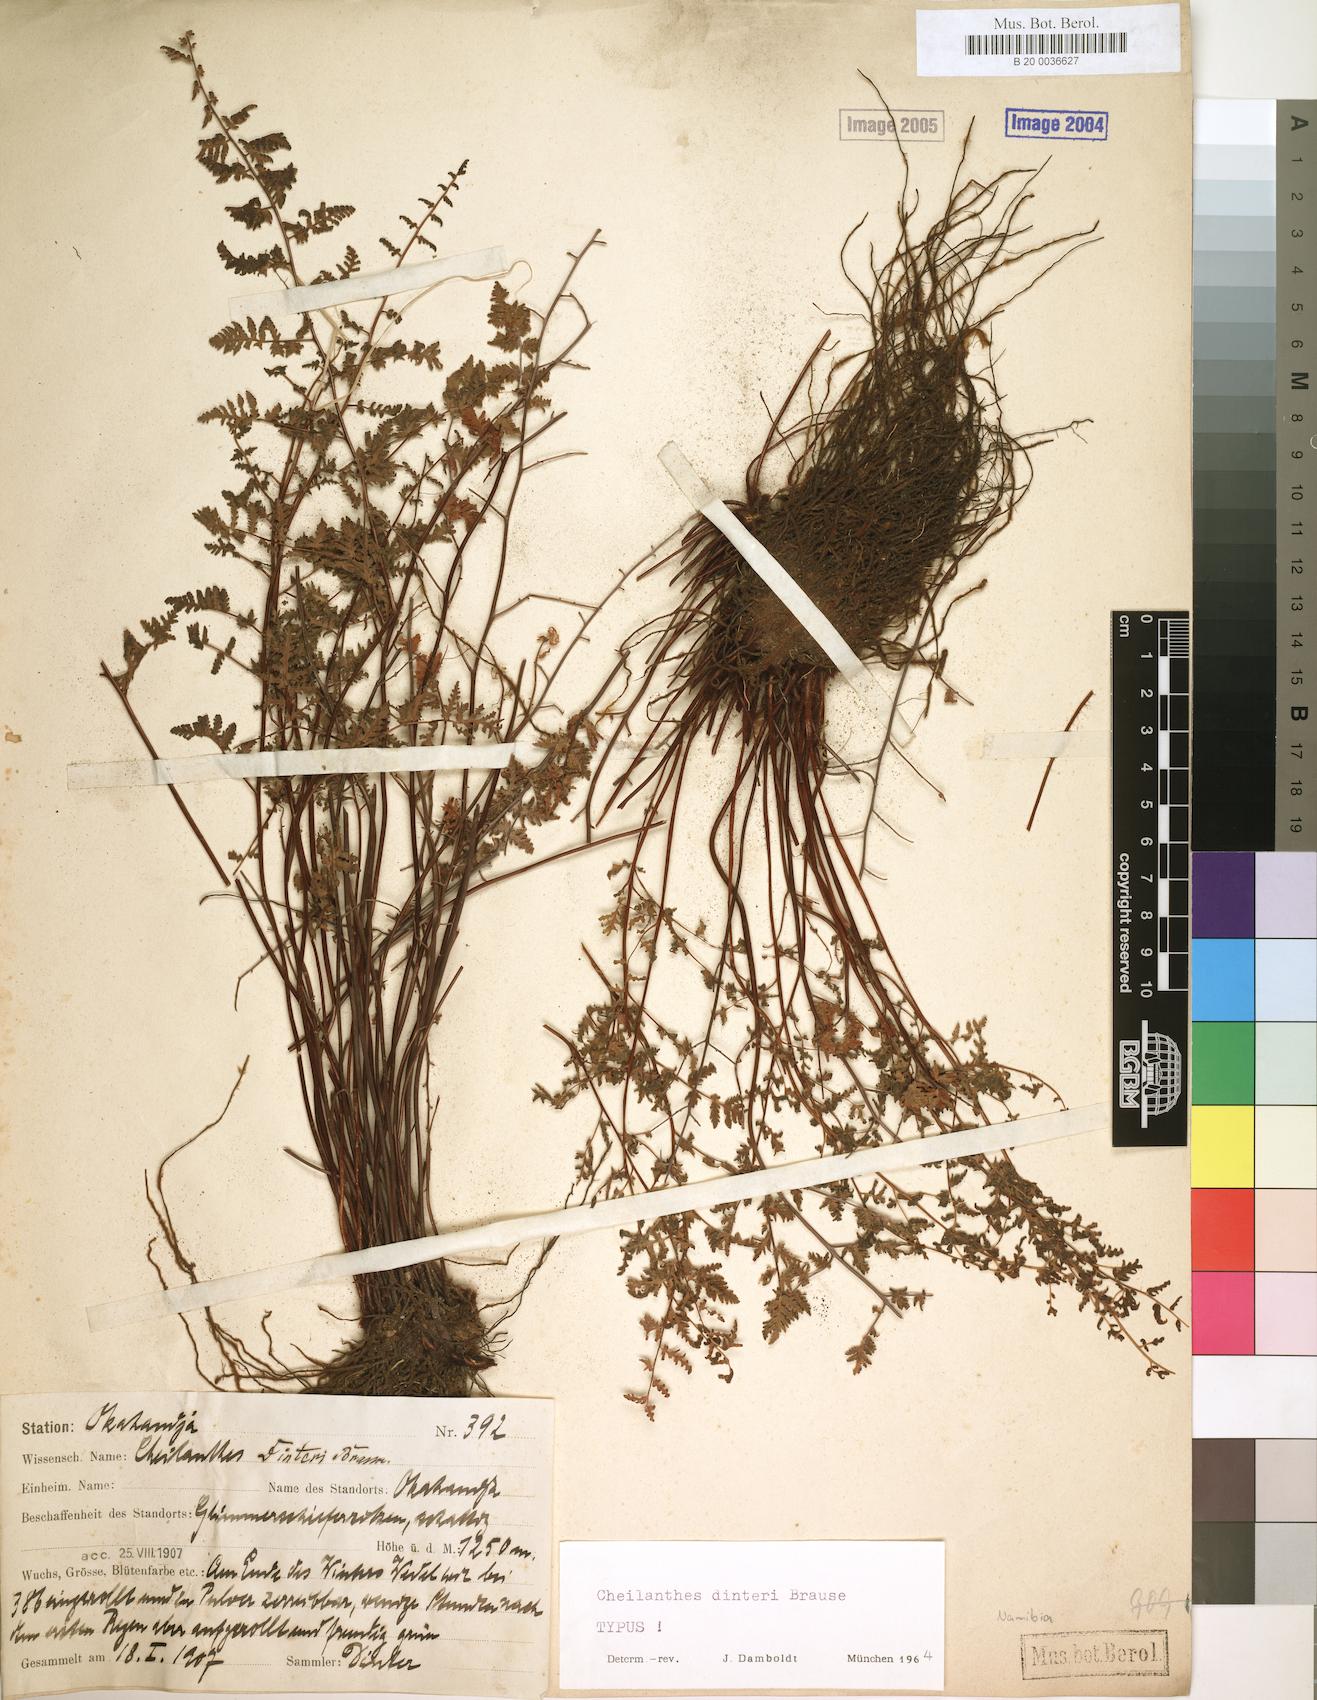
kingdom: Plantae
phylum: Tracheophyta
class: Polypodiopsida
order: Polypodiales
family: Pteridaceae
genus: Cheilanthes
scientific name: Cheilanthes dinteri
